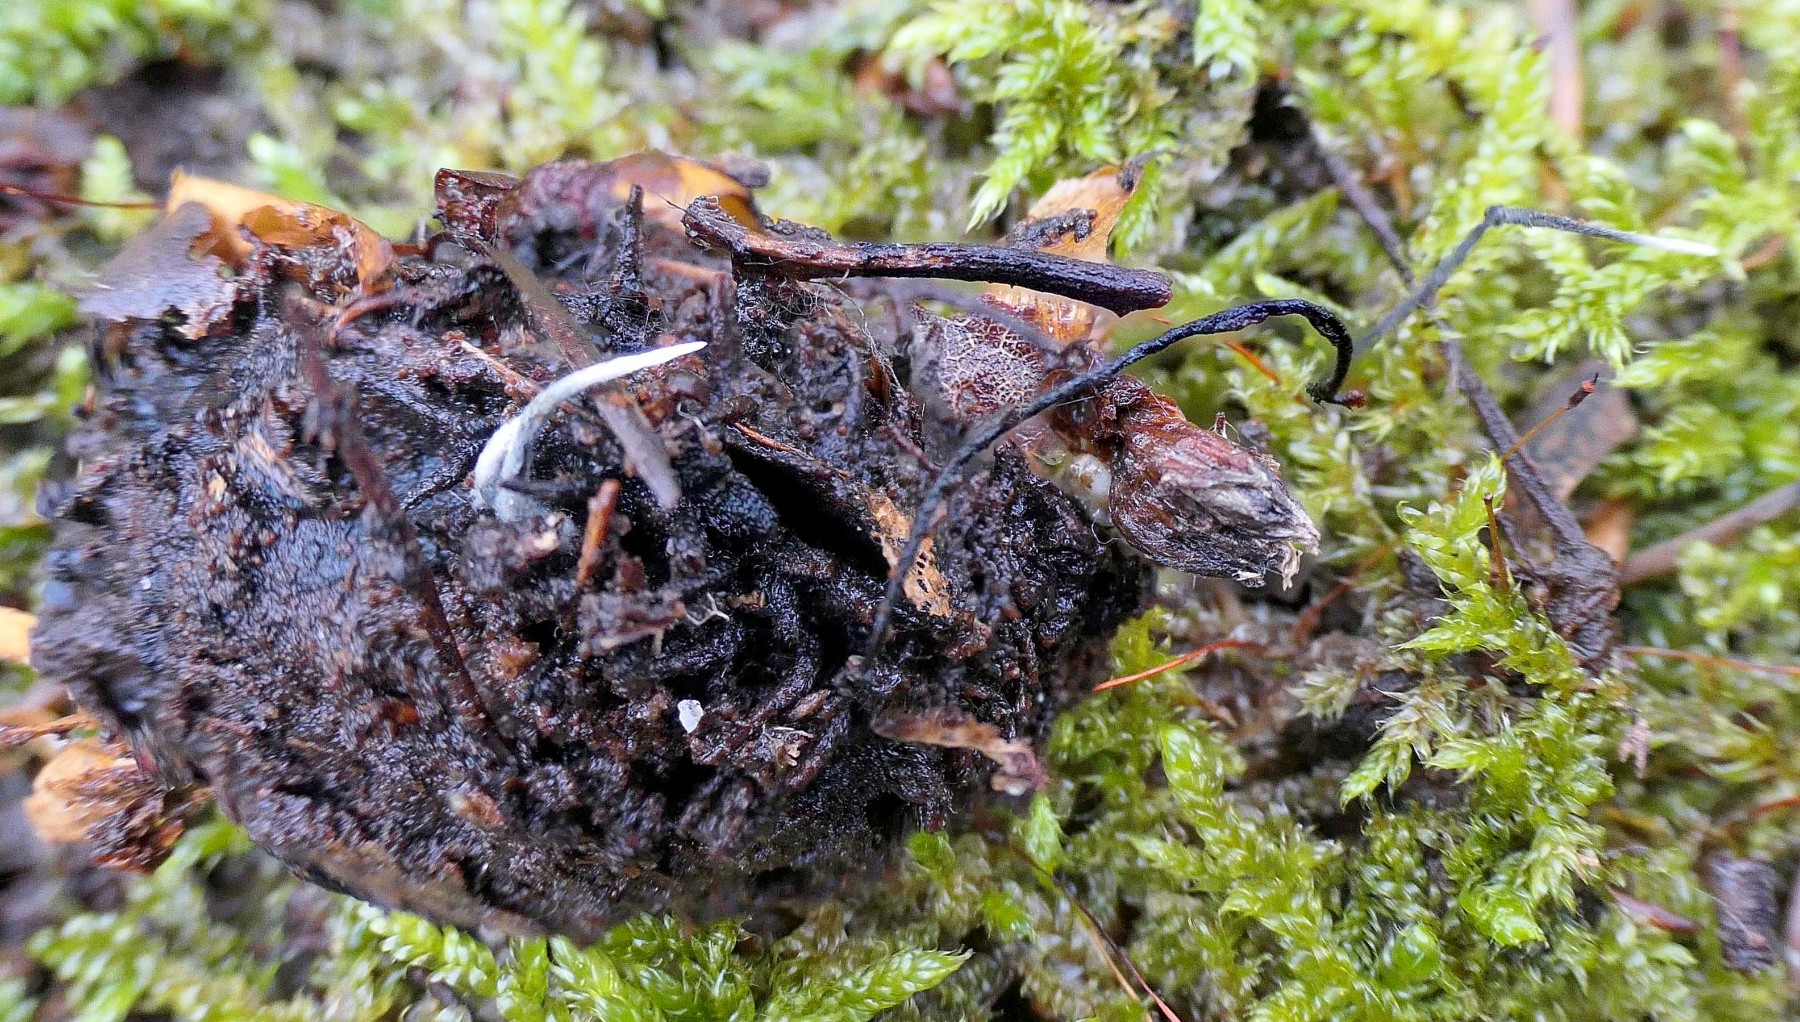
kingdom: Fungi
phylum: Ascomycota
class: Sordariomycetes
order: Xylariales
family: Xylariaceae
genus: Xylaria
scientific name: Xylaria carpophila
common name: bogskål-stødsvamp
